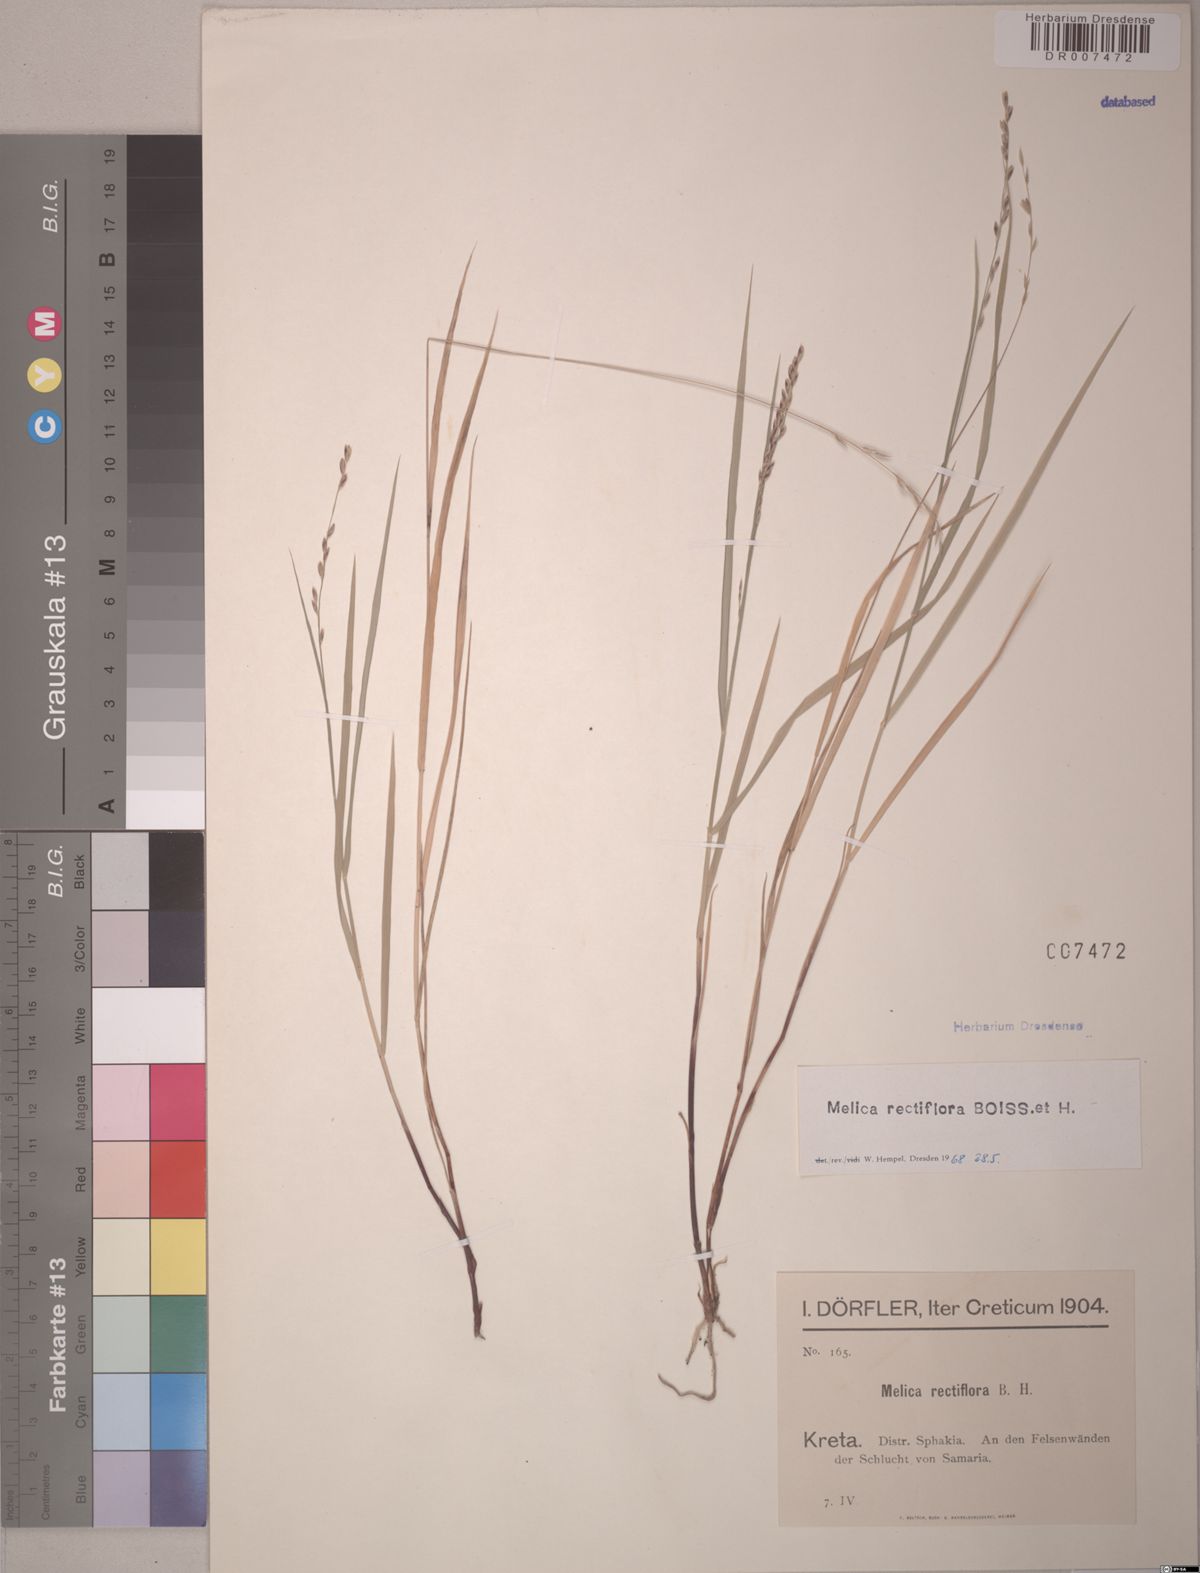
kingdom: Plantae
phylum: Tracheophyta
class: Liliopsida
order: Poales
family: Poaceae
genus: Melica
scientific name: Melica rectiflora
